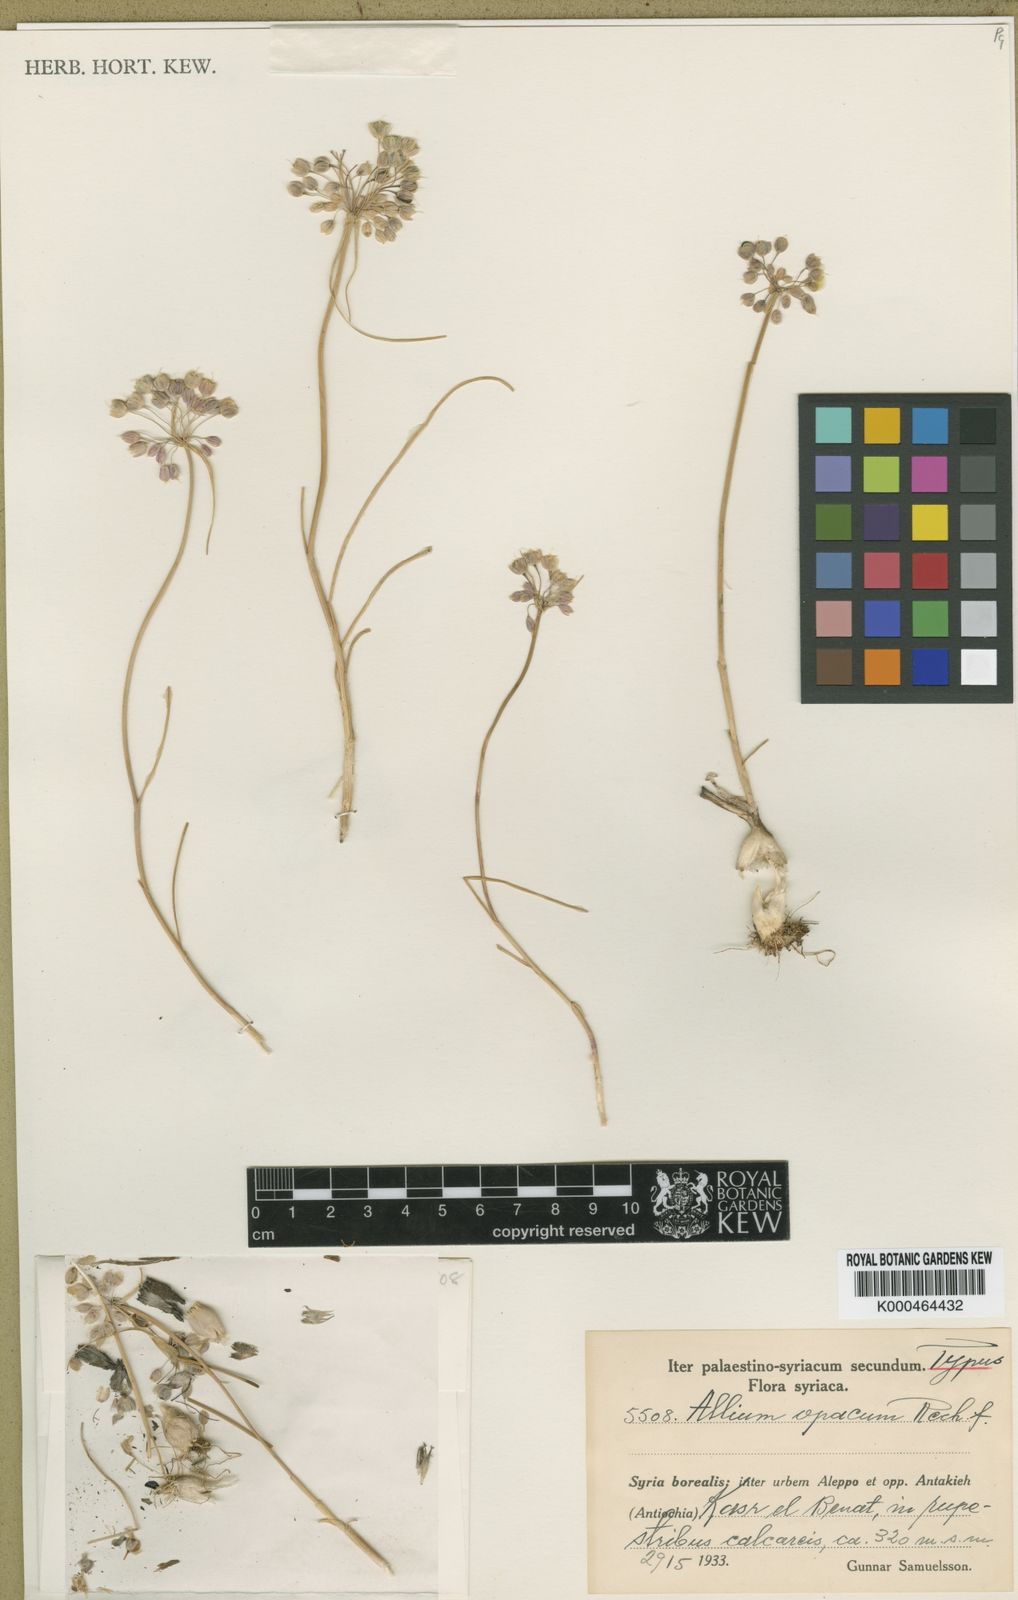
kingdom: Plantae
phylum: Tracheophyta
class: Liliopsida
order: Asparagales
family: Amaryllidaceae
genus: Allium
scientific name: Allium opacum
